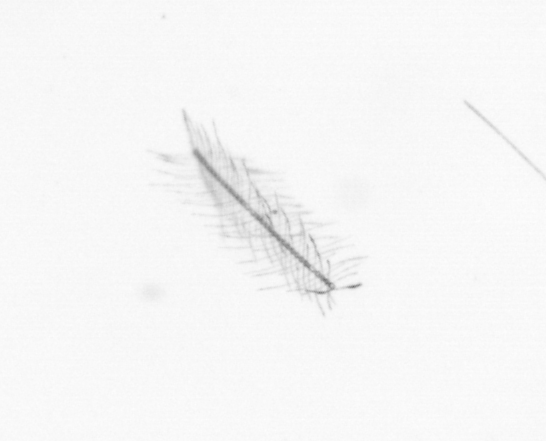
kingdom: Chromista
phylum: Ochrophyta
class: Bacillariophyceae
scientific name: Bacillariophyceae
